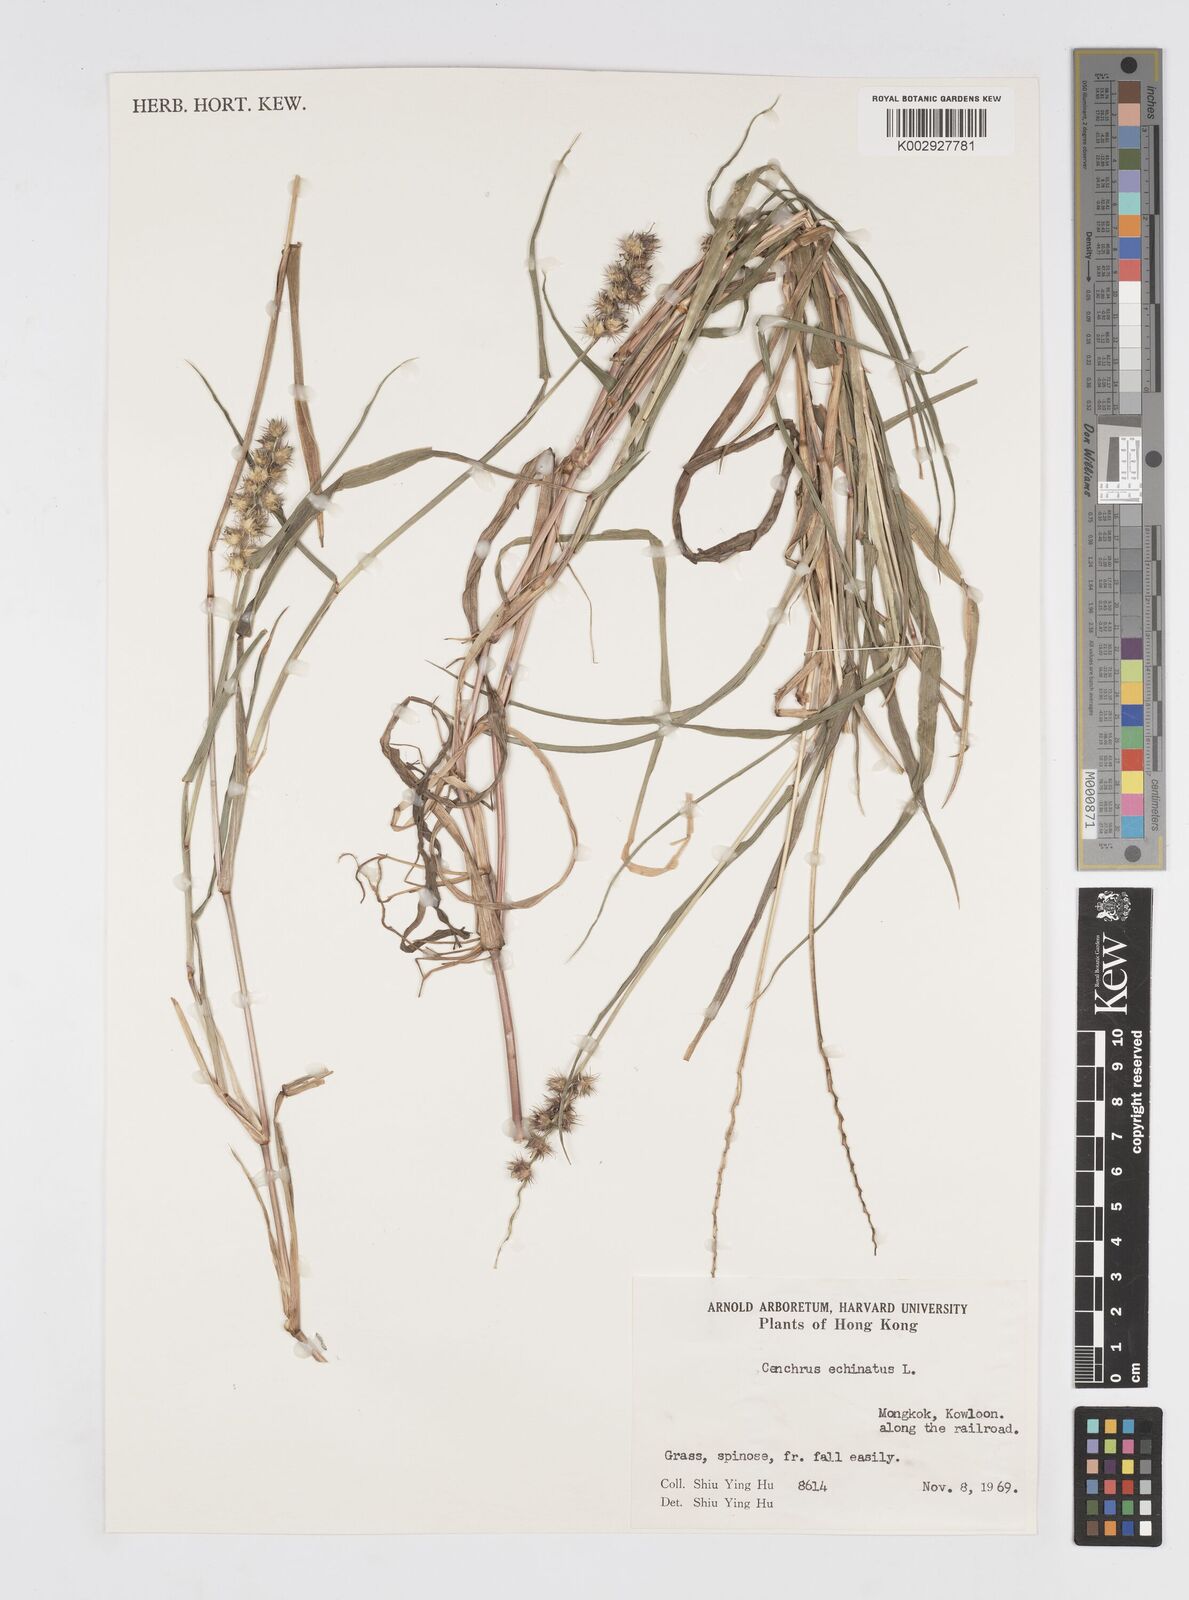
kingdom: Plantae
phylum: Tracheophyta
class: Liliopsida
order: Poales
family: Poaceae
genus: Cenchrus
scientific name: Cenchrus echinatus
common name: Southern sandbur
